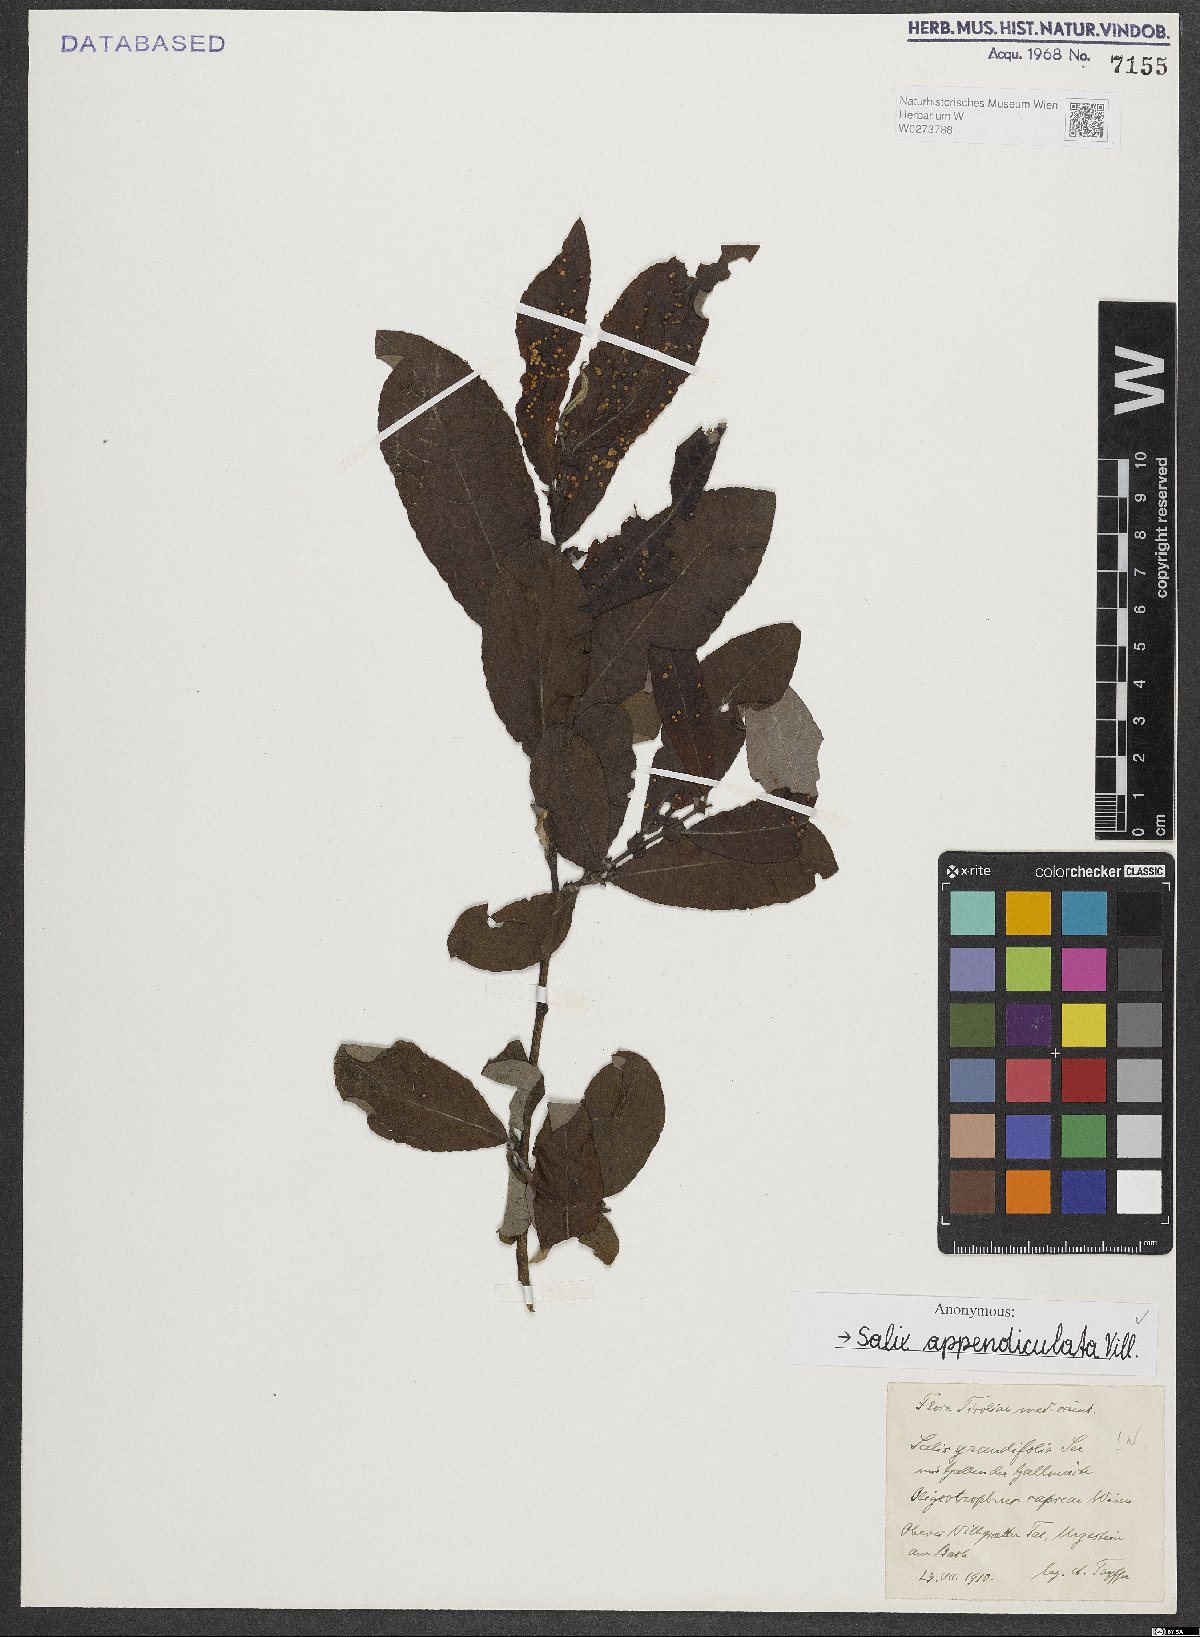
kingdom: Plantae
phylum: Tracheophyta
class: Magnoliopsida
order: Malpighiales
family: Salicaceae
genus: Salix
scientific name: Salix appendiculata
